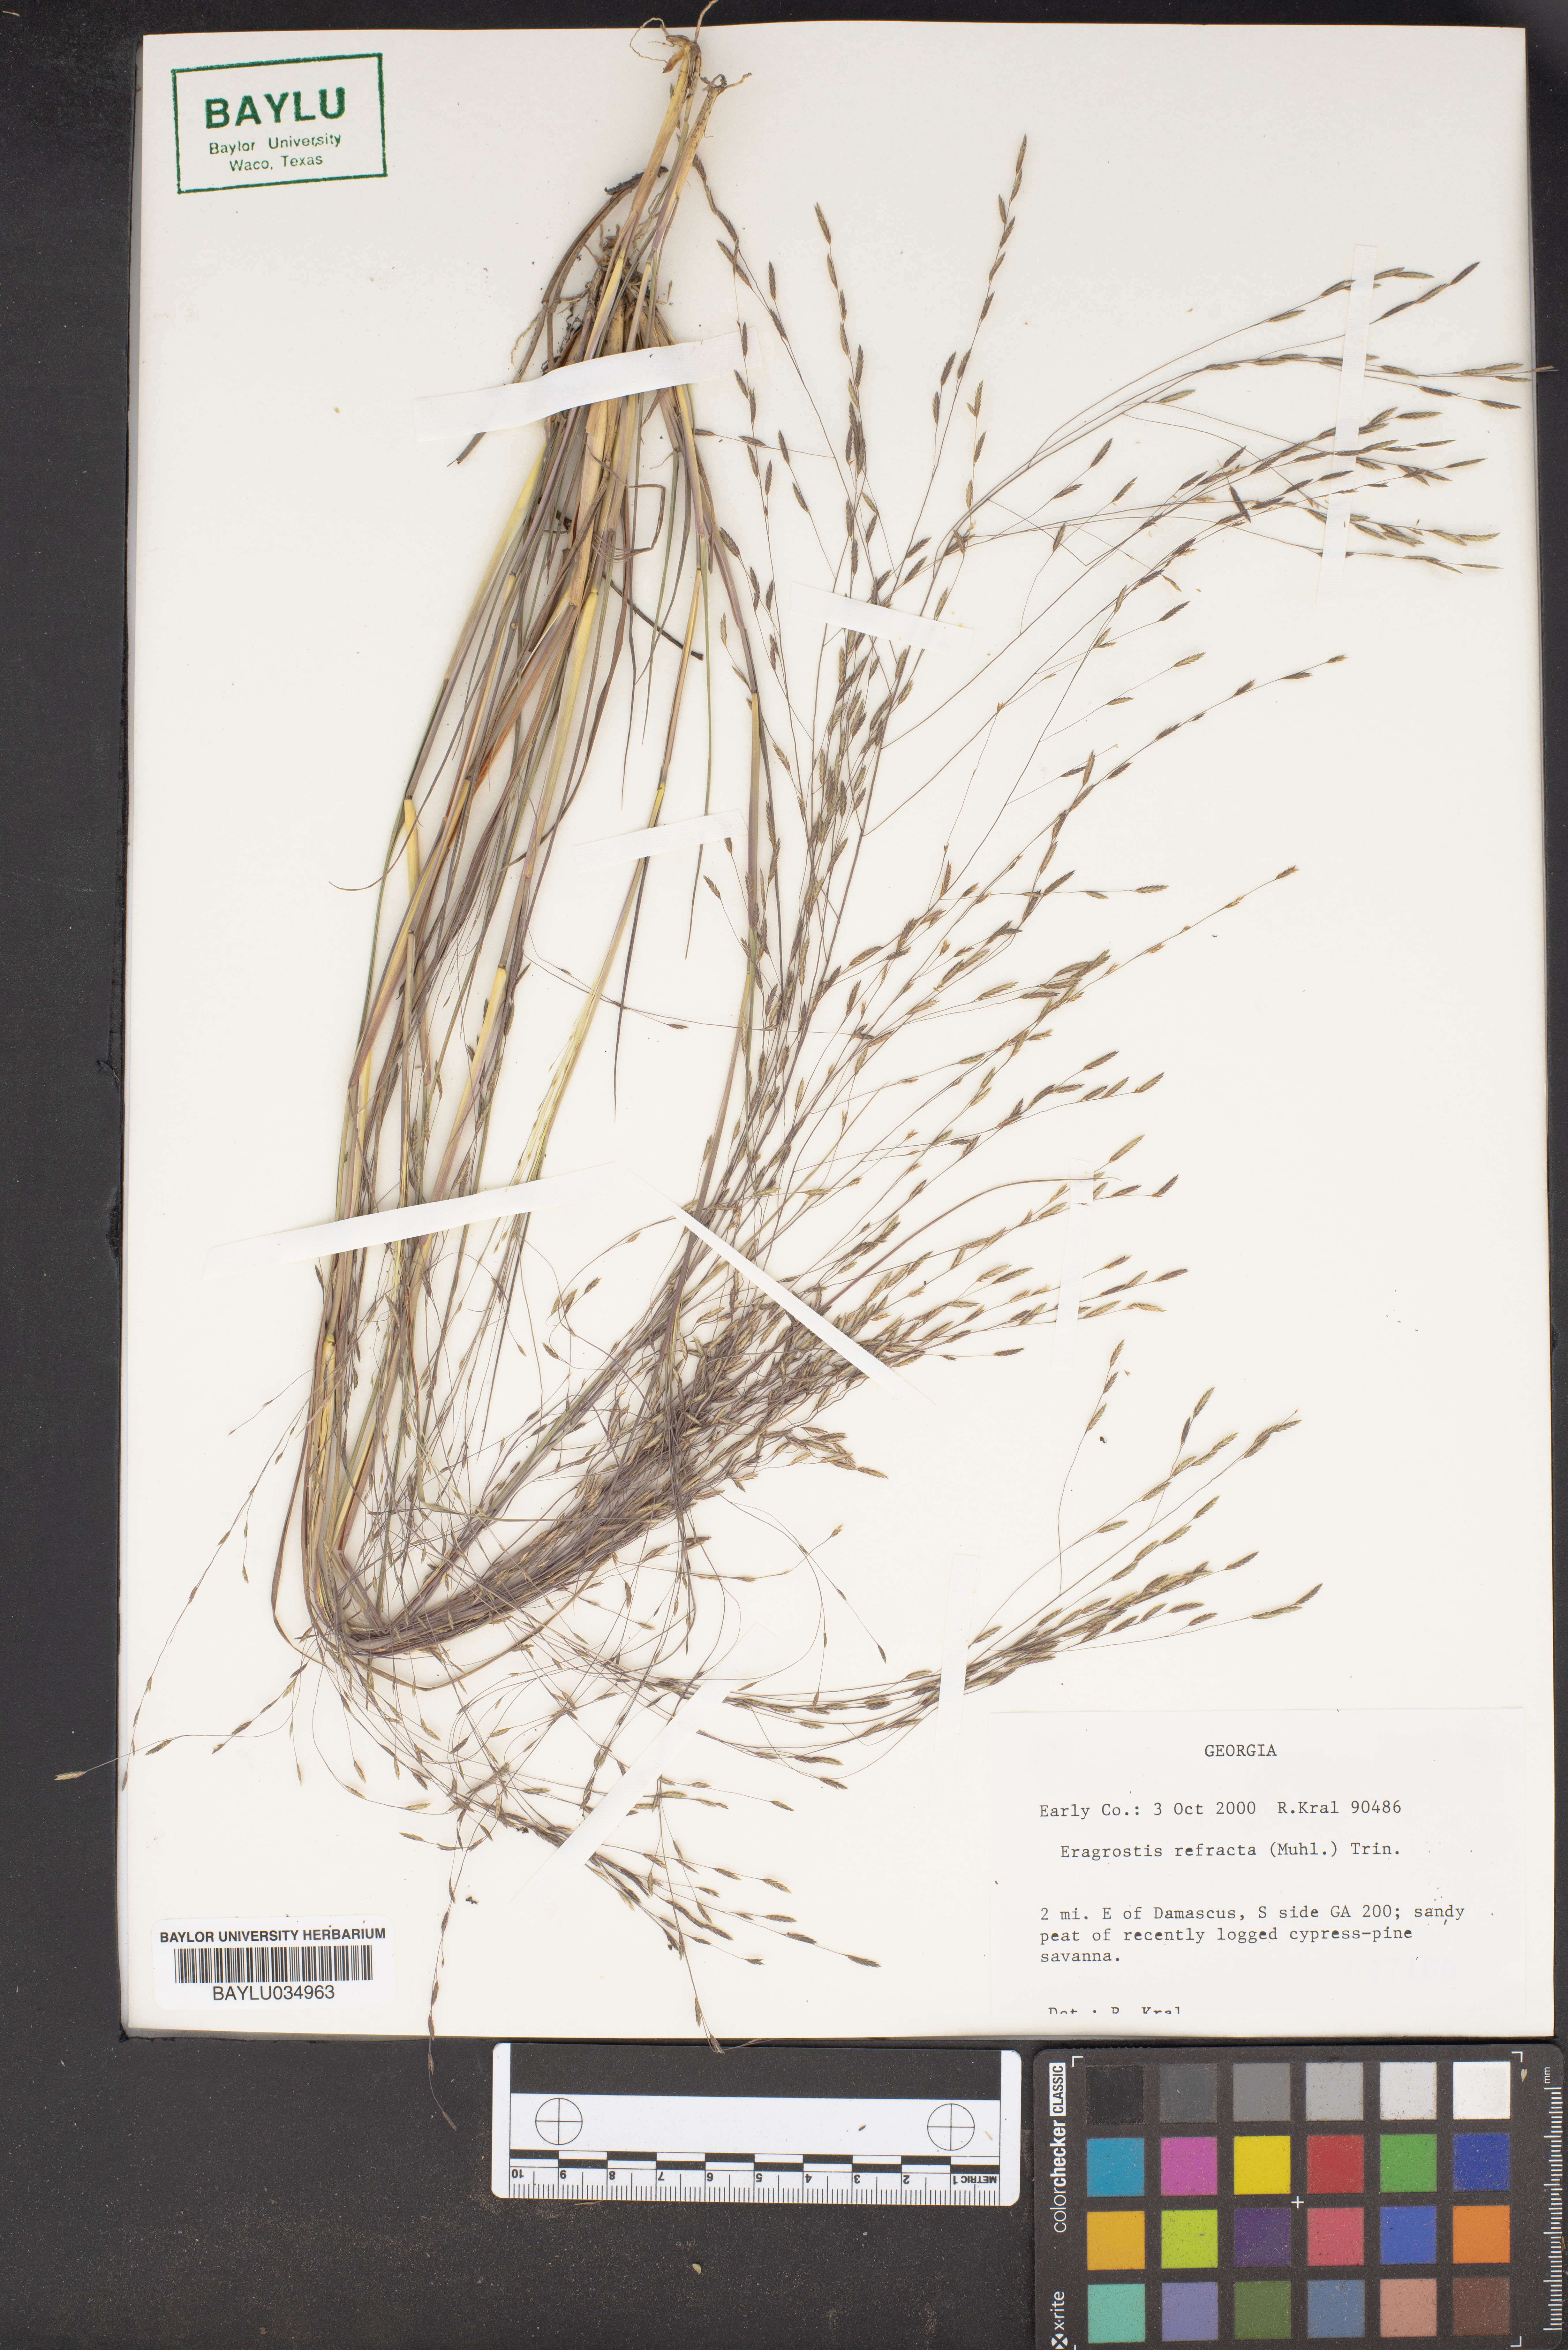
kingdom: Plantae
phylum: Tracheophyta
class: Liliopsida
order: Poales
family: Poaceae
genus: Eragrostis
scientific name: Eragrostis refracta
